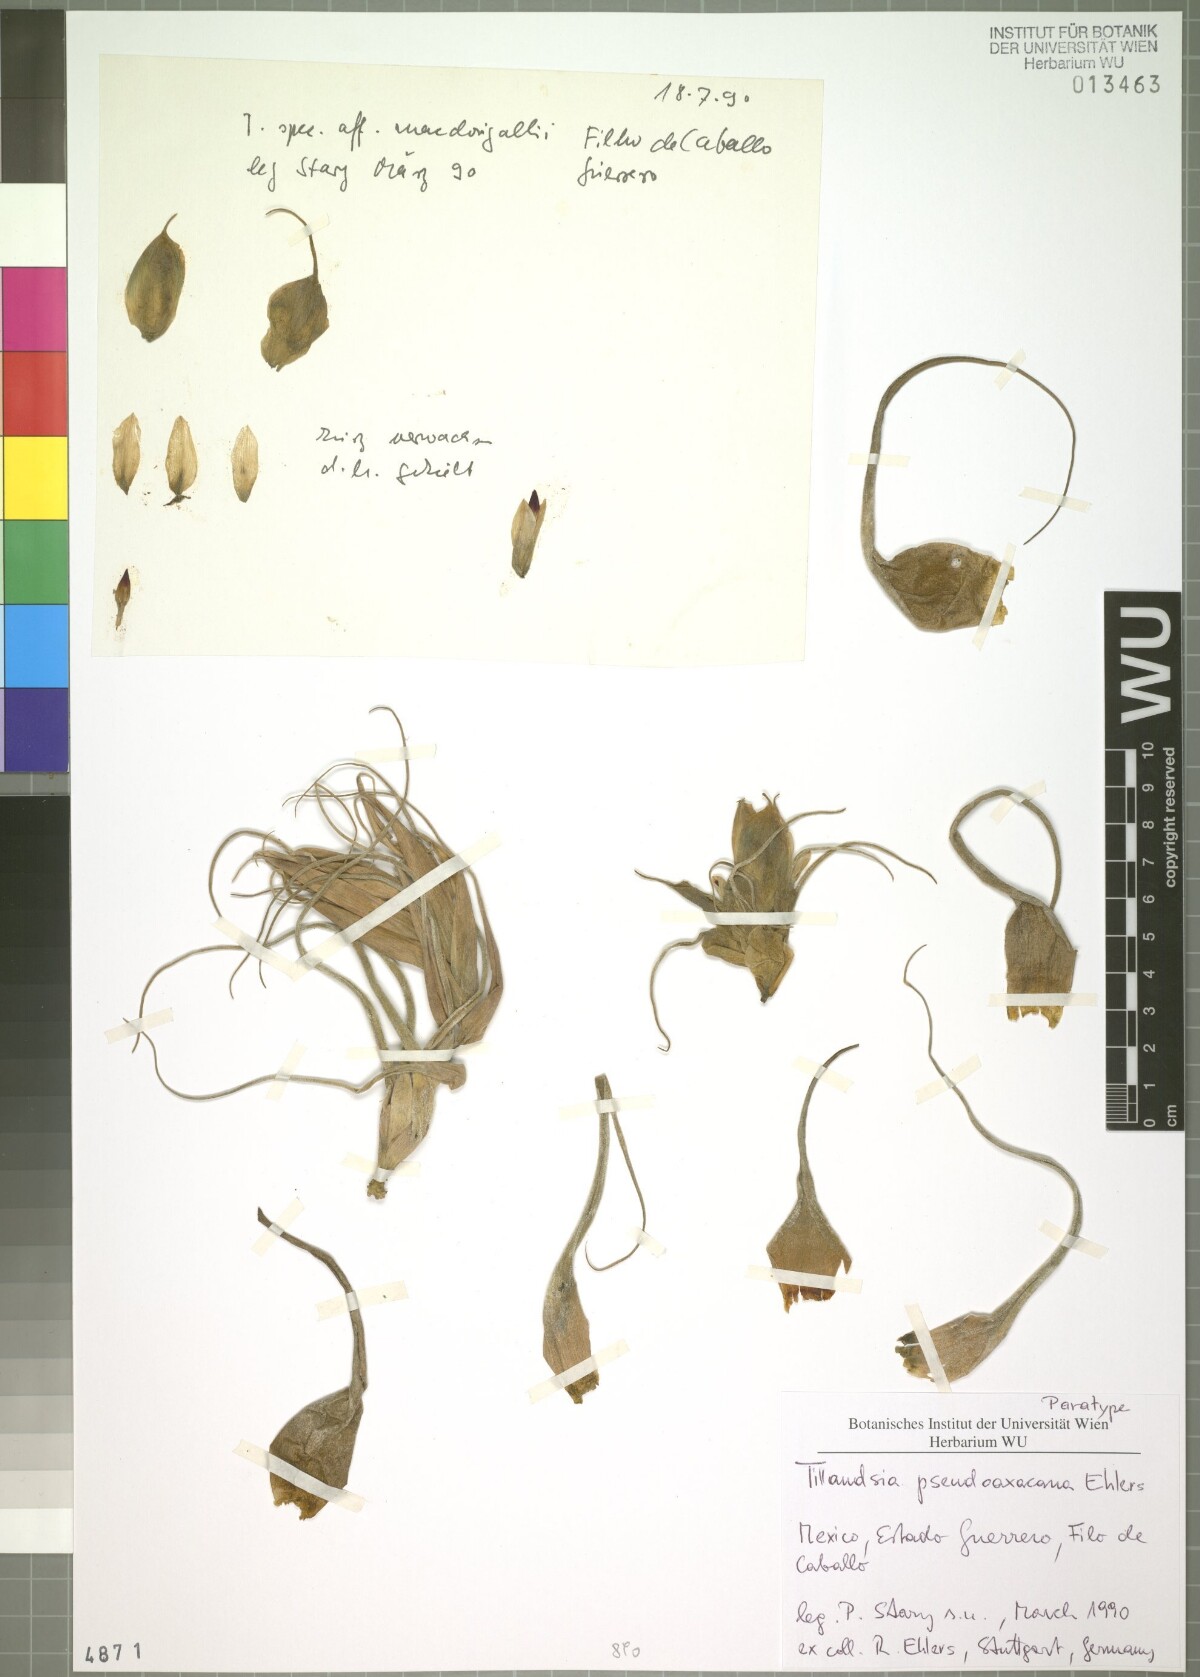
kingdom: Plantae
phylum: Tracheophyta
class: Liliopsida
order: Poales
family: Bromeliaceae
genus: Tillandsia
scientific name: Tillandsia pseudooaxacana
